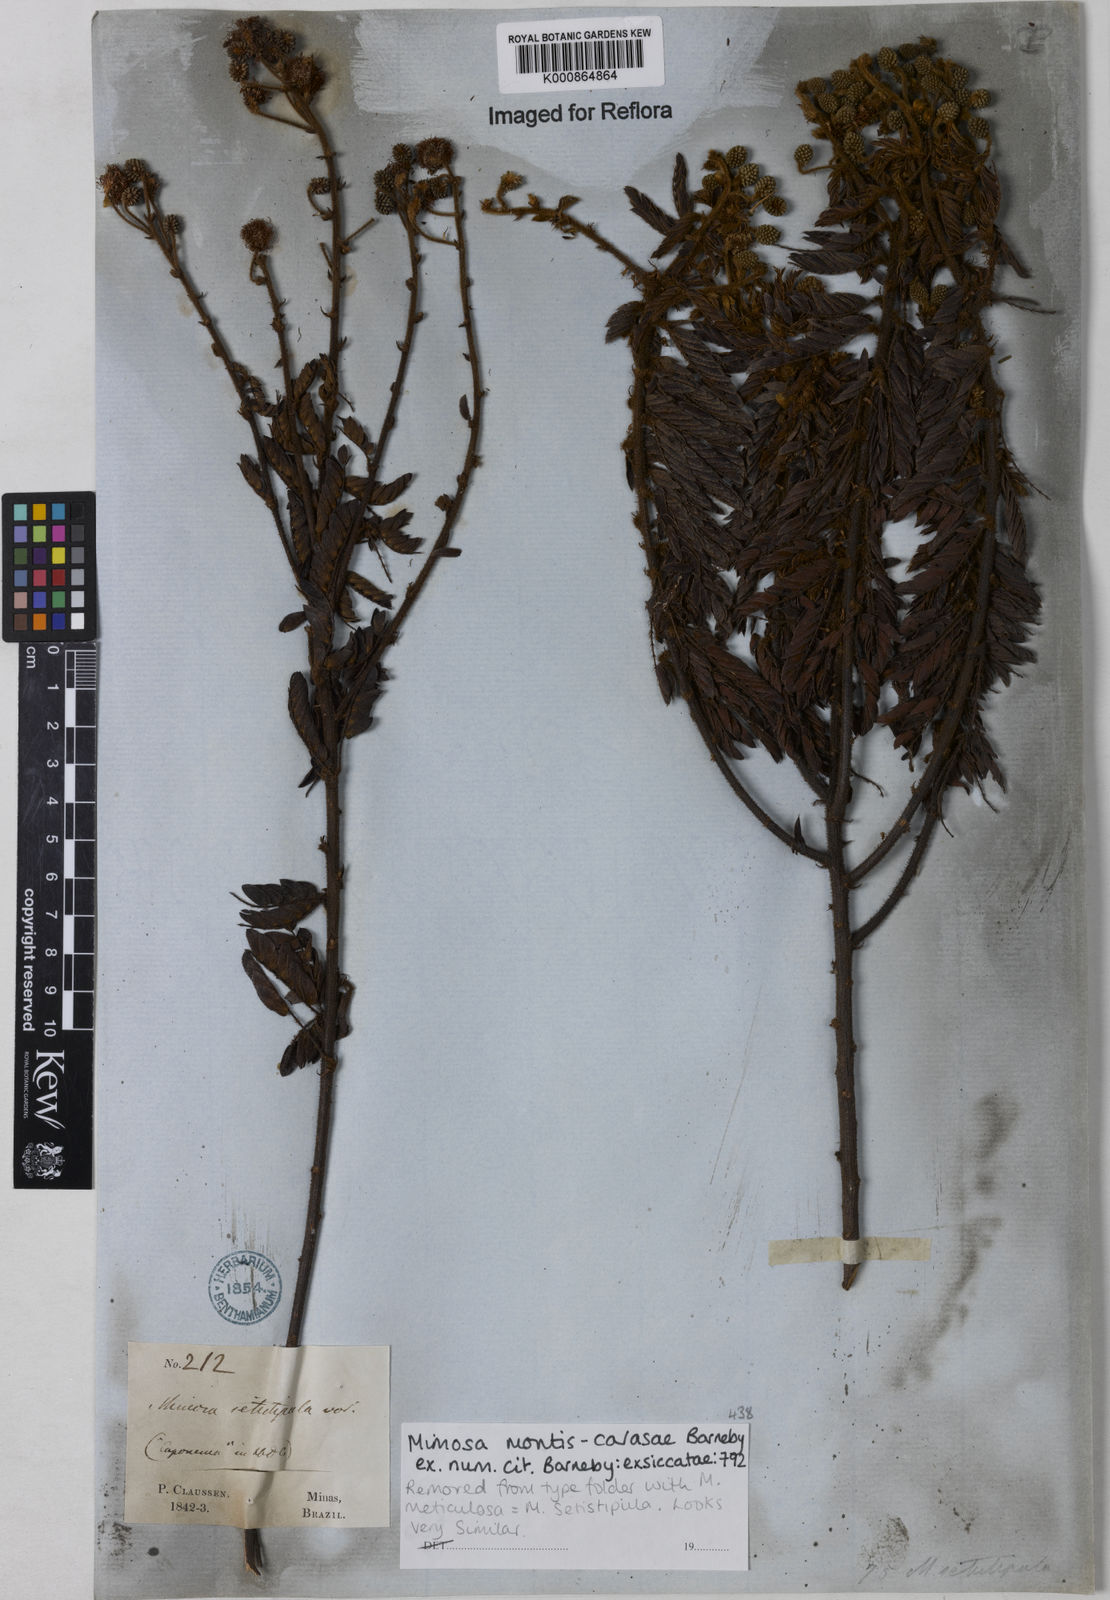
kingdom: Plantae
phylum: Tracheophyta
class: Magnoliopsida
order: Fabales
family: Fabaceae
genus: Mimosa
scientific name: Mimosa montis-carasae
